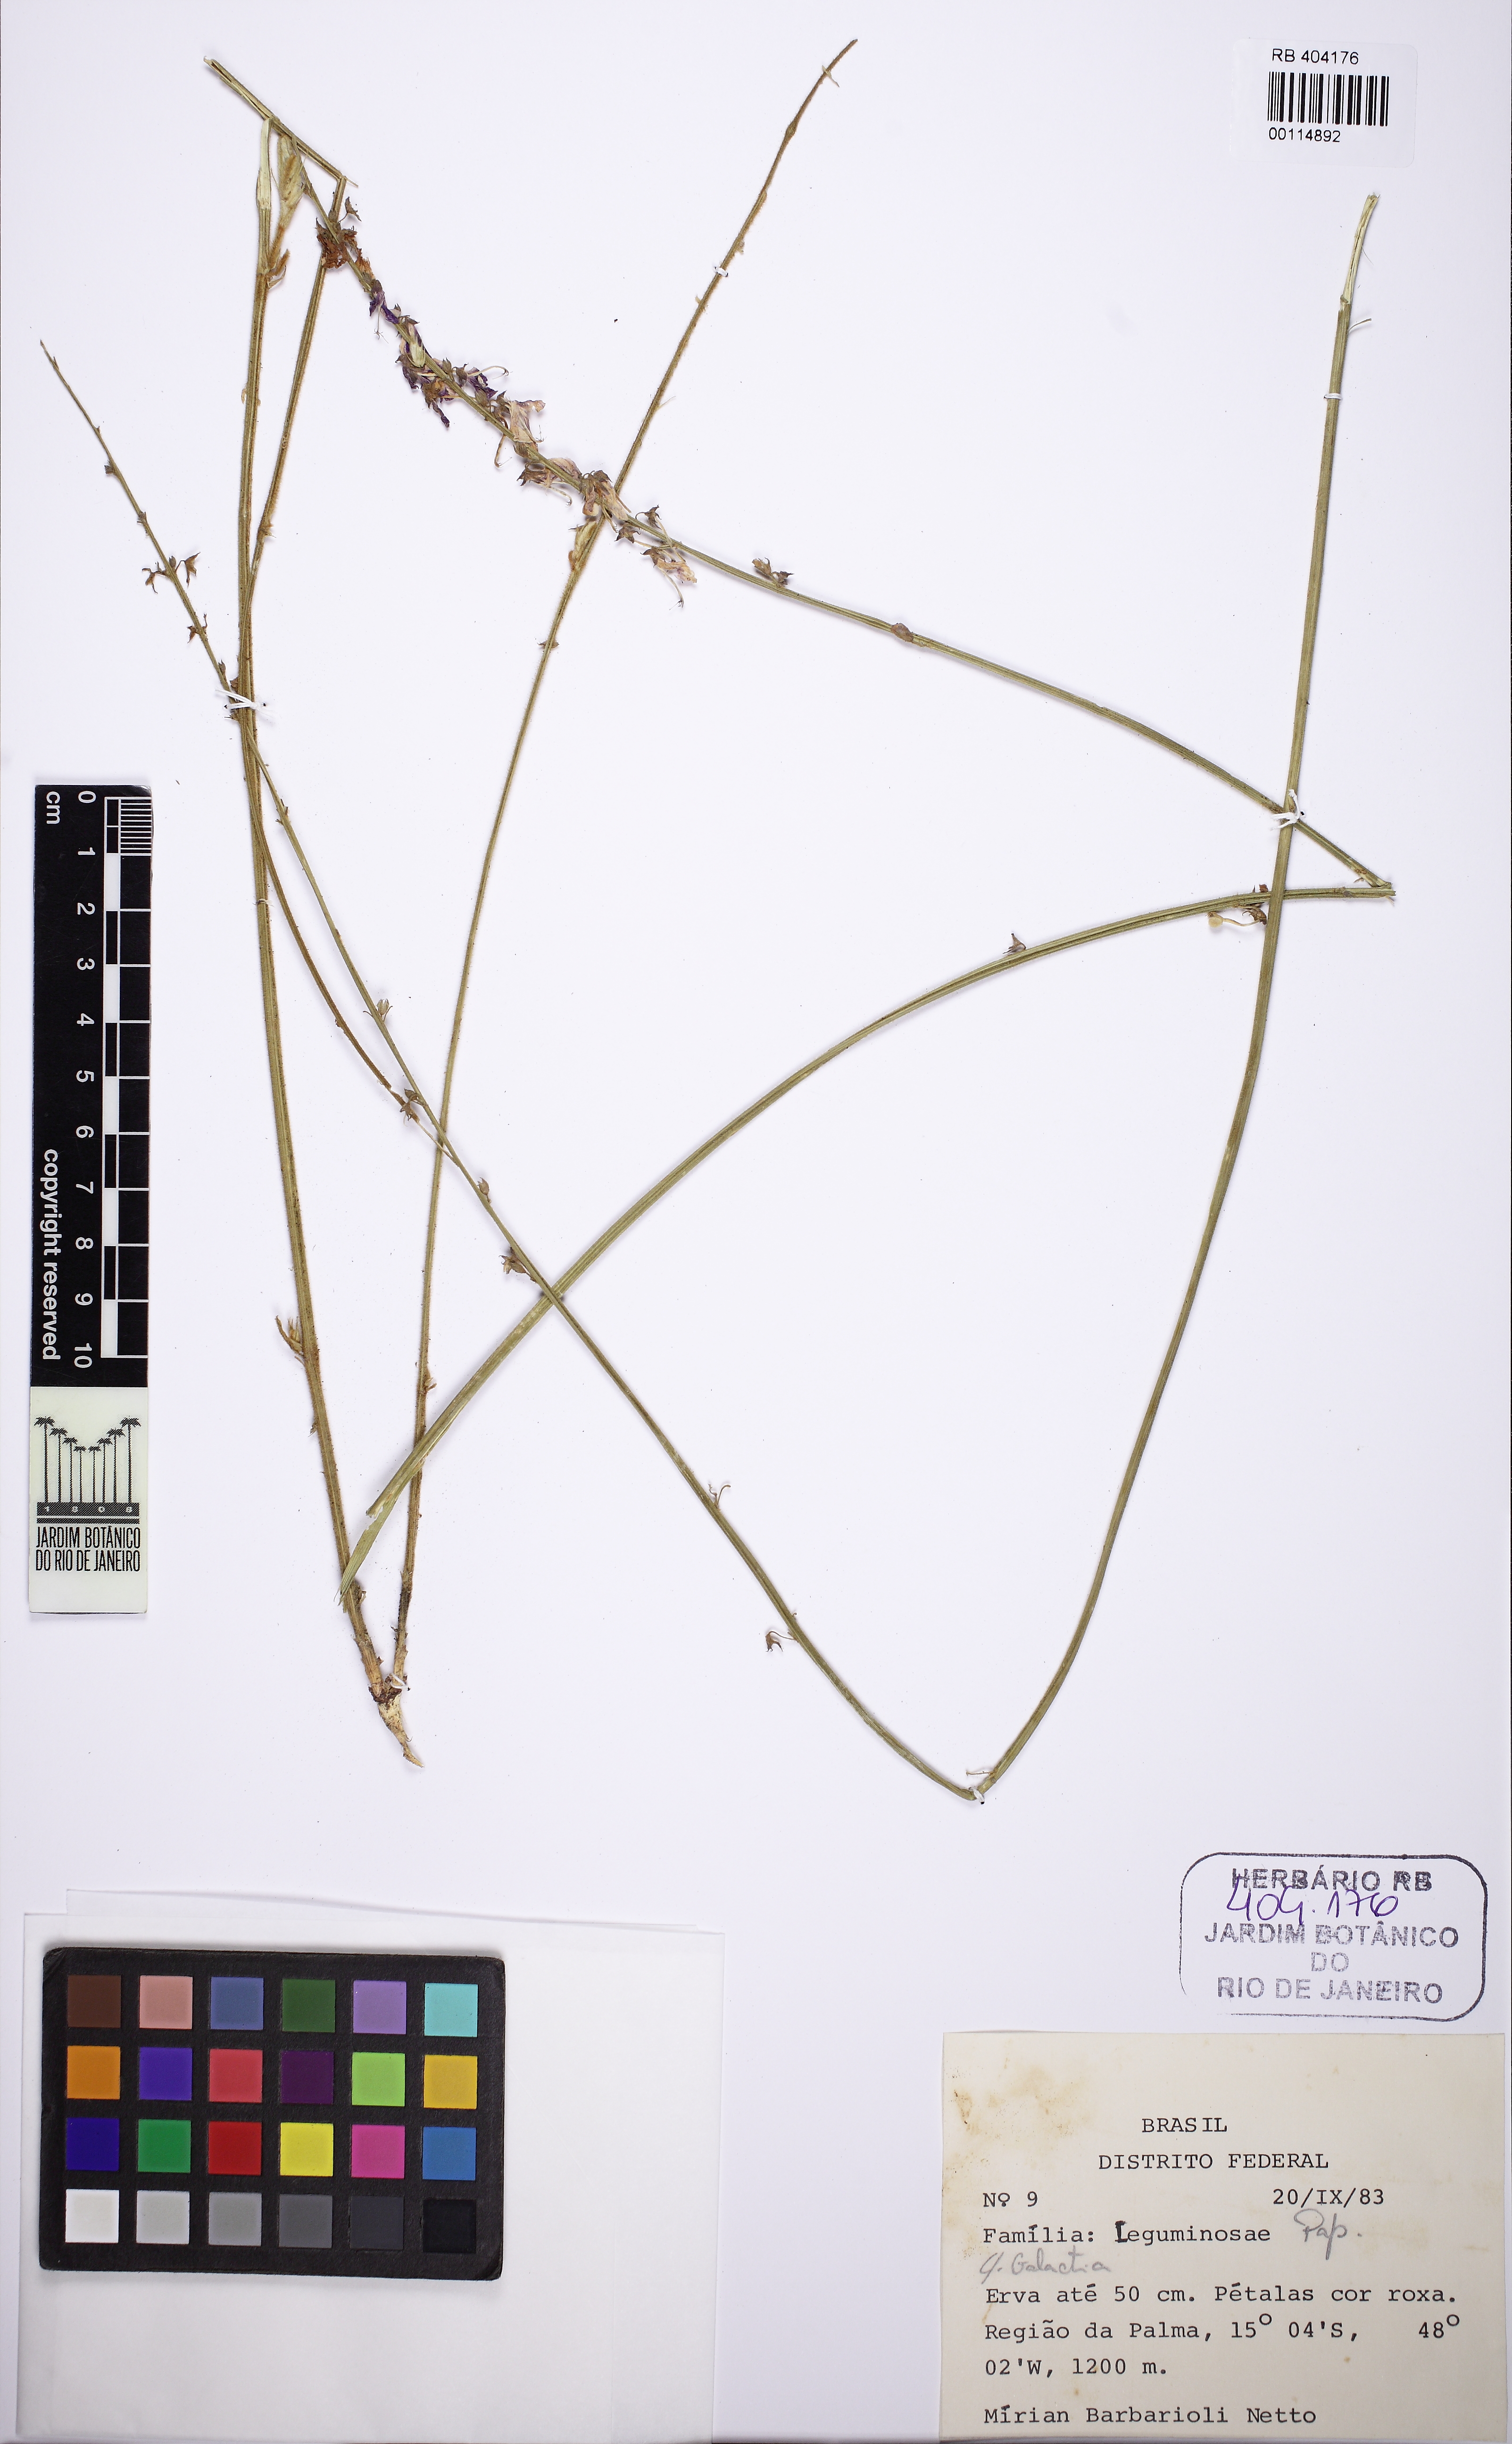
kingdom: Plantae
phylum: Tracheophyta
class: Magnoliopsida
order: Fabales
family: Fabaceae
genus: Desmodium
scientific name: Desmodium platycarpum
